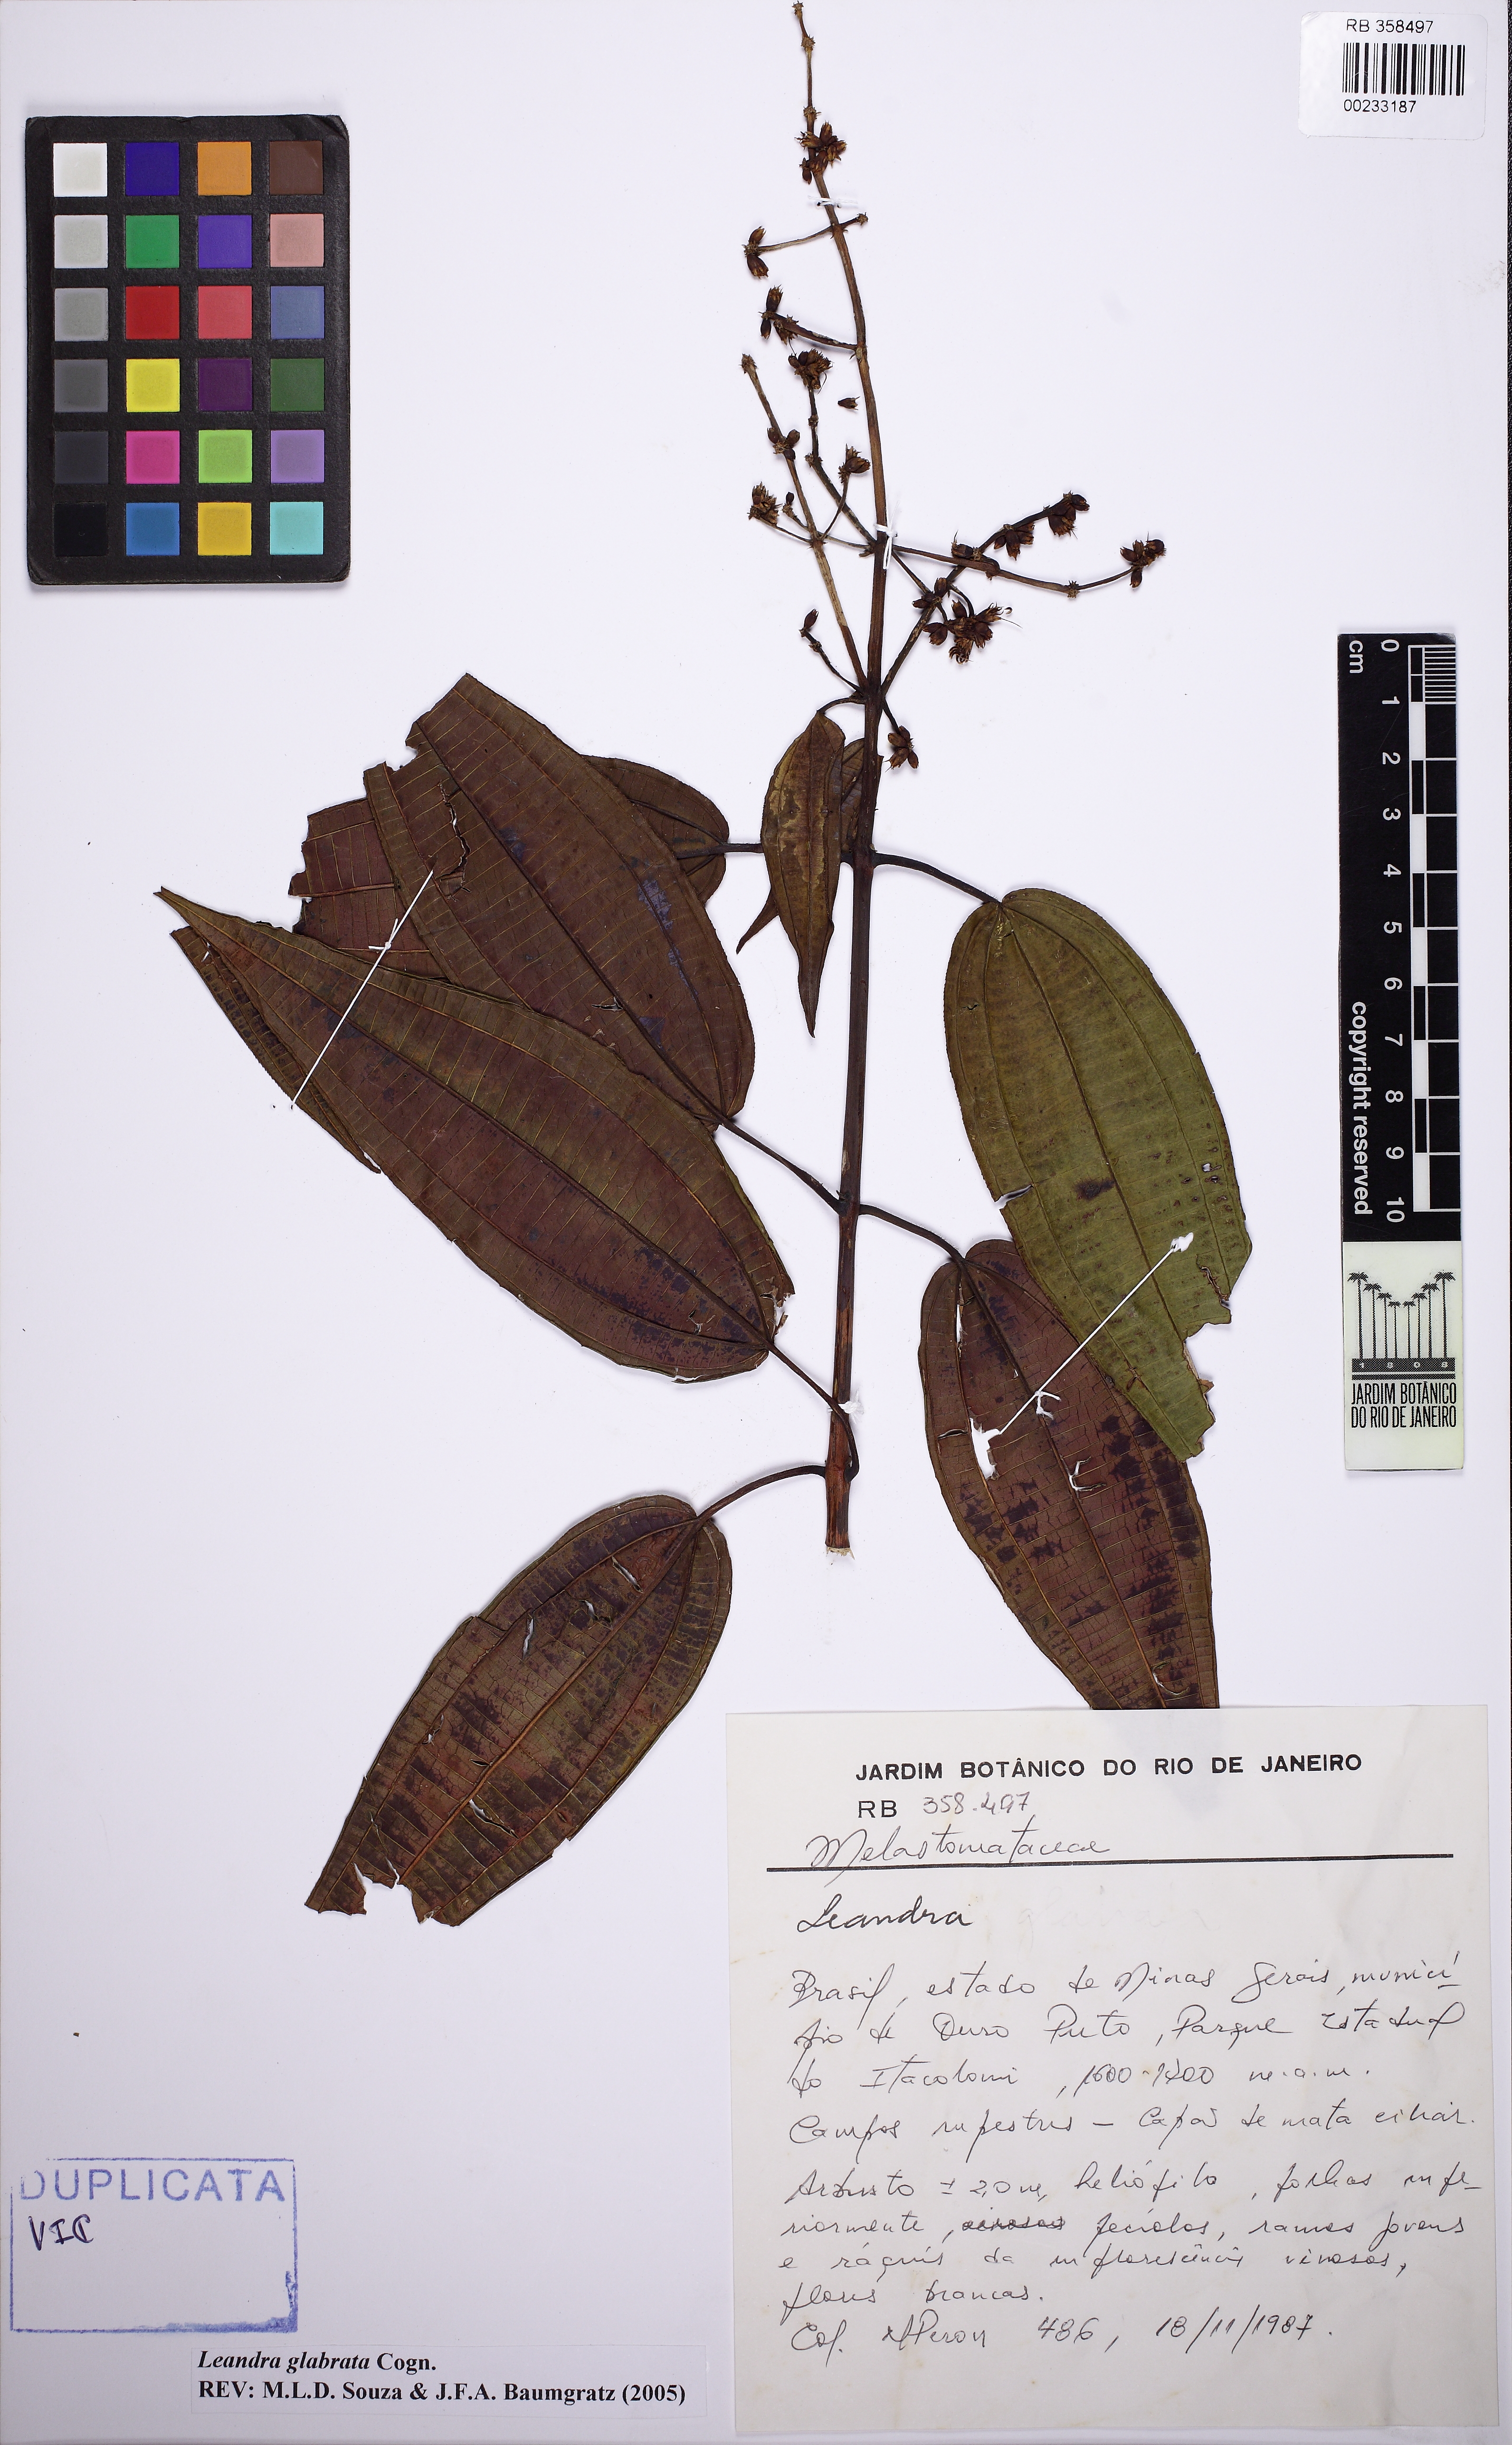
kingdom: Plantae
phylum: Tracheophyta
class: Magnoliopsida
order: Myrtales
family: Melastomataceae
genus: Miconia
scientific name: Miconia dolichostachya
